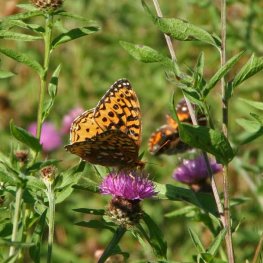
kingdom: Animalia
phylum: Arthropoda
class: Insecta
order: Lepidoptera
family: Nymphalidae
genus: Speyeria
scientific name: Speyeria cybele
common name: Great Spangled Fritillary
